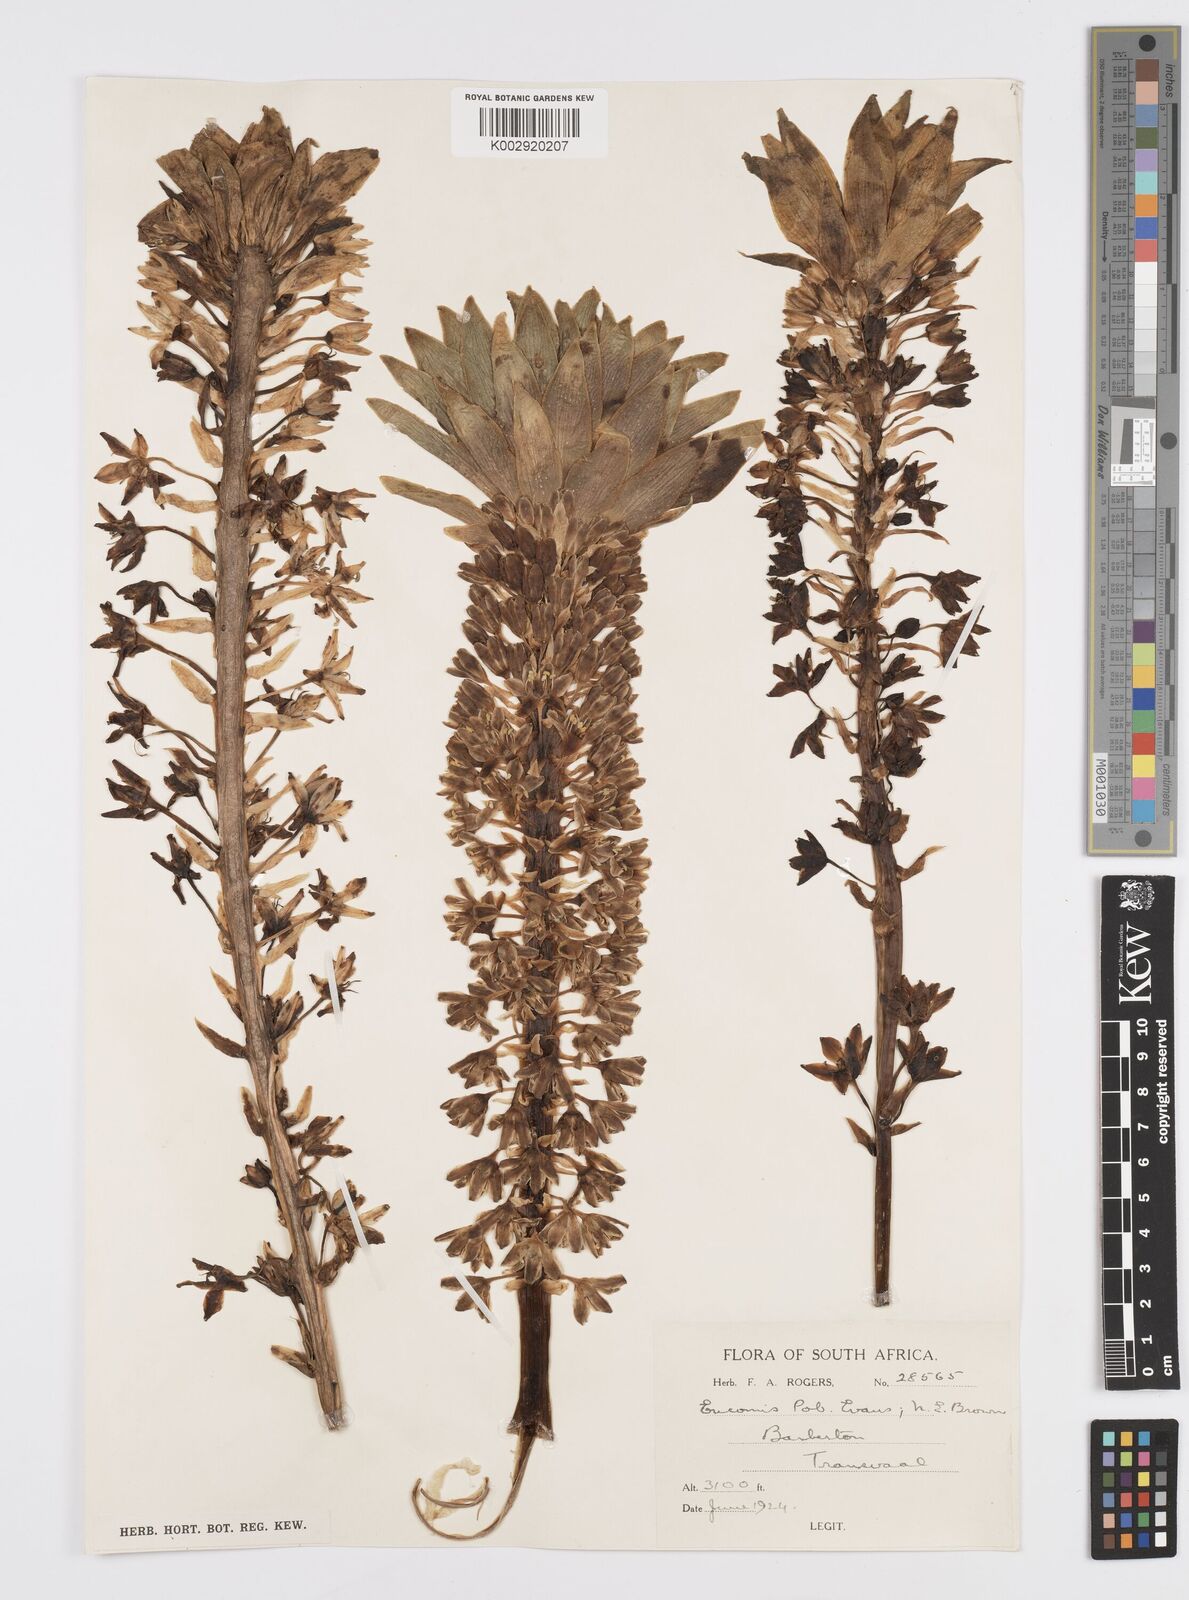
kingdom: Plantae
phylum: Tracheophyta
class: Liliopsida
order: Asparagales
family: Asparagaceae
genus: Eucomis
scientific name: Eucomis
